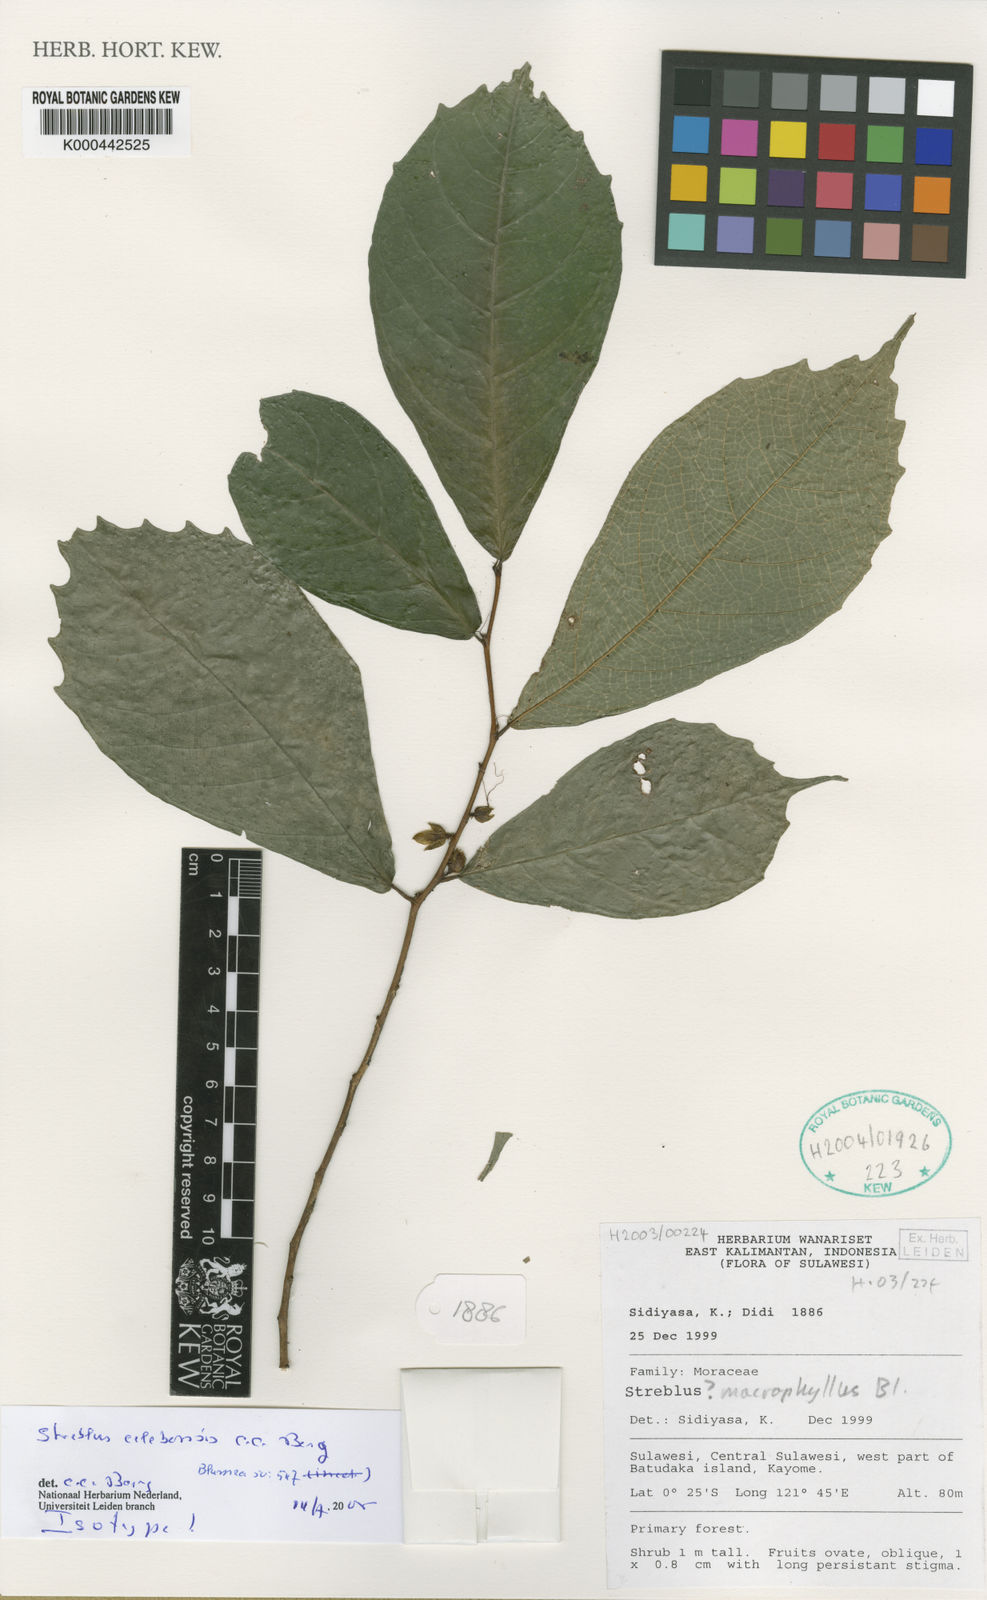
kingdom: Plantae
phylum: Tracheophyta
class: Magnoliopsida
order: Rosales
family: Moraceae
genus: Streblus
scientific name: Streblus celebensis
